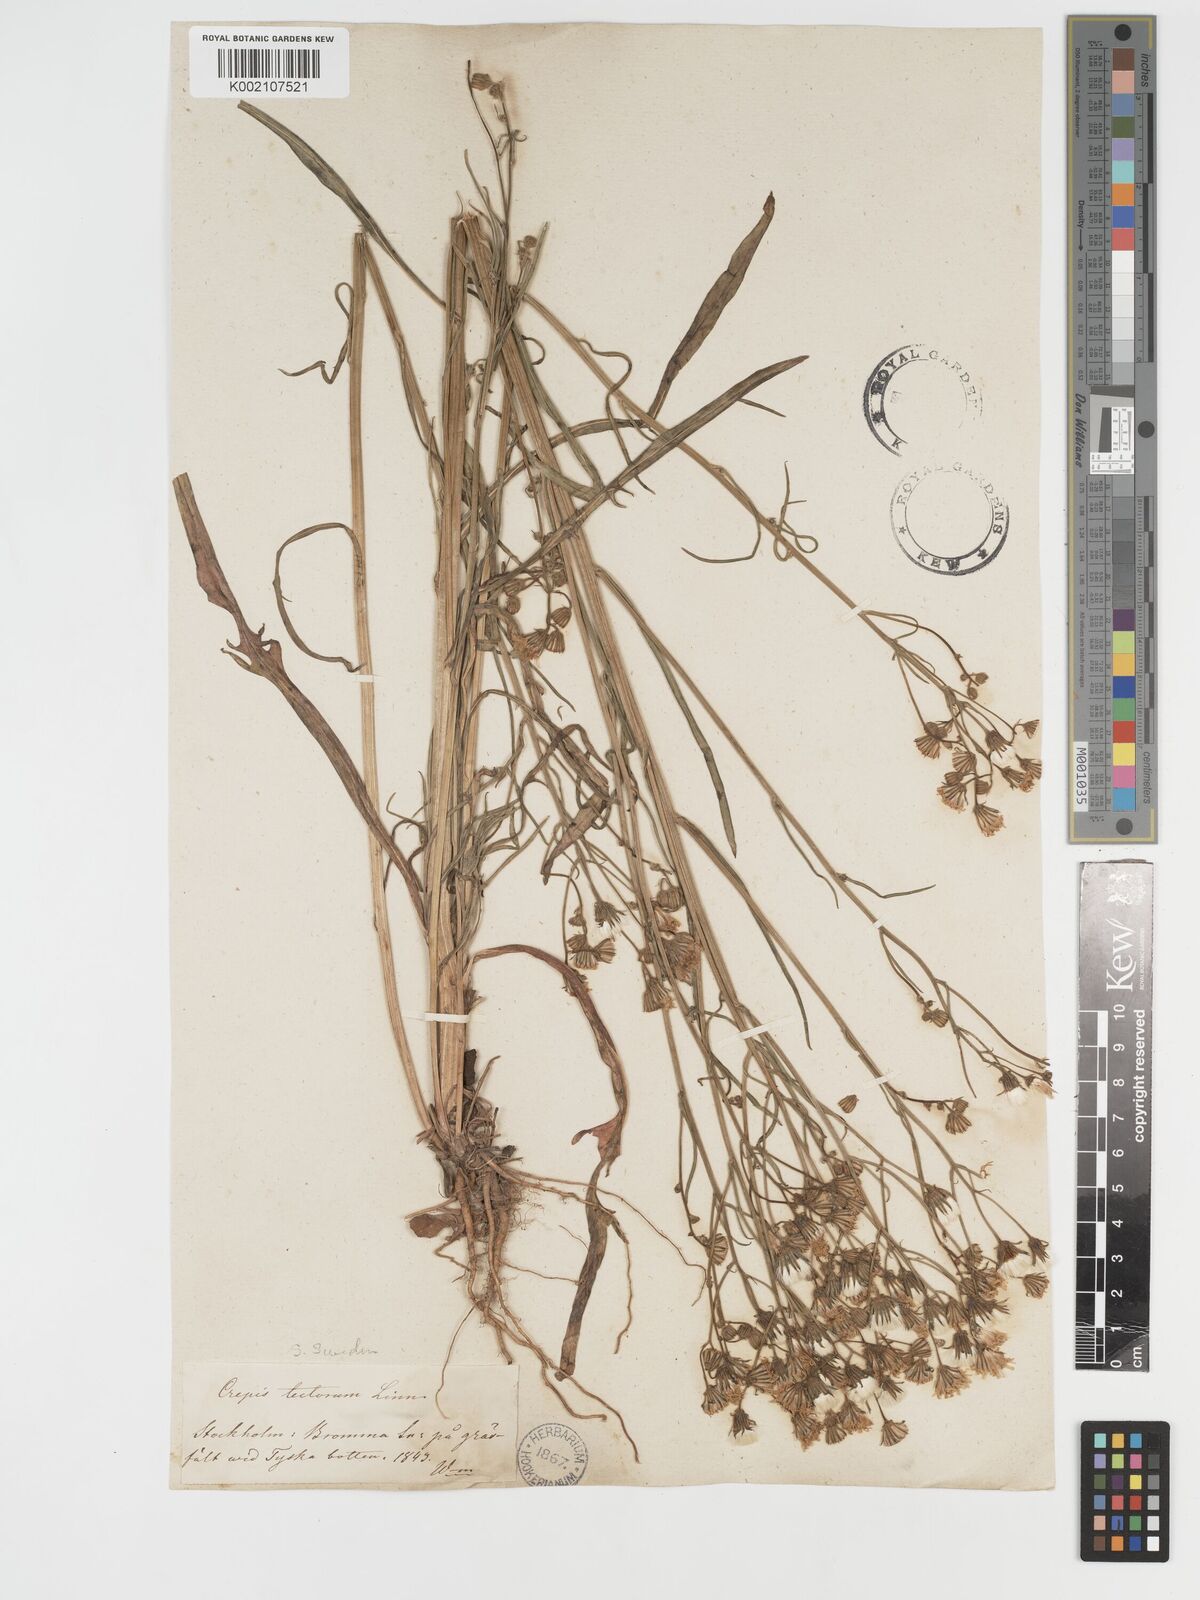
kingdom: Plantae
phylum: Tracheophyta
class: Magnoliopsida
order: Asterales
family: Asteraceae
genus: Crepis
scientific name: Crepis tectorum
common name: Narrow-leaved hawk's-beard
